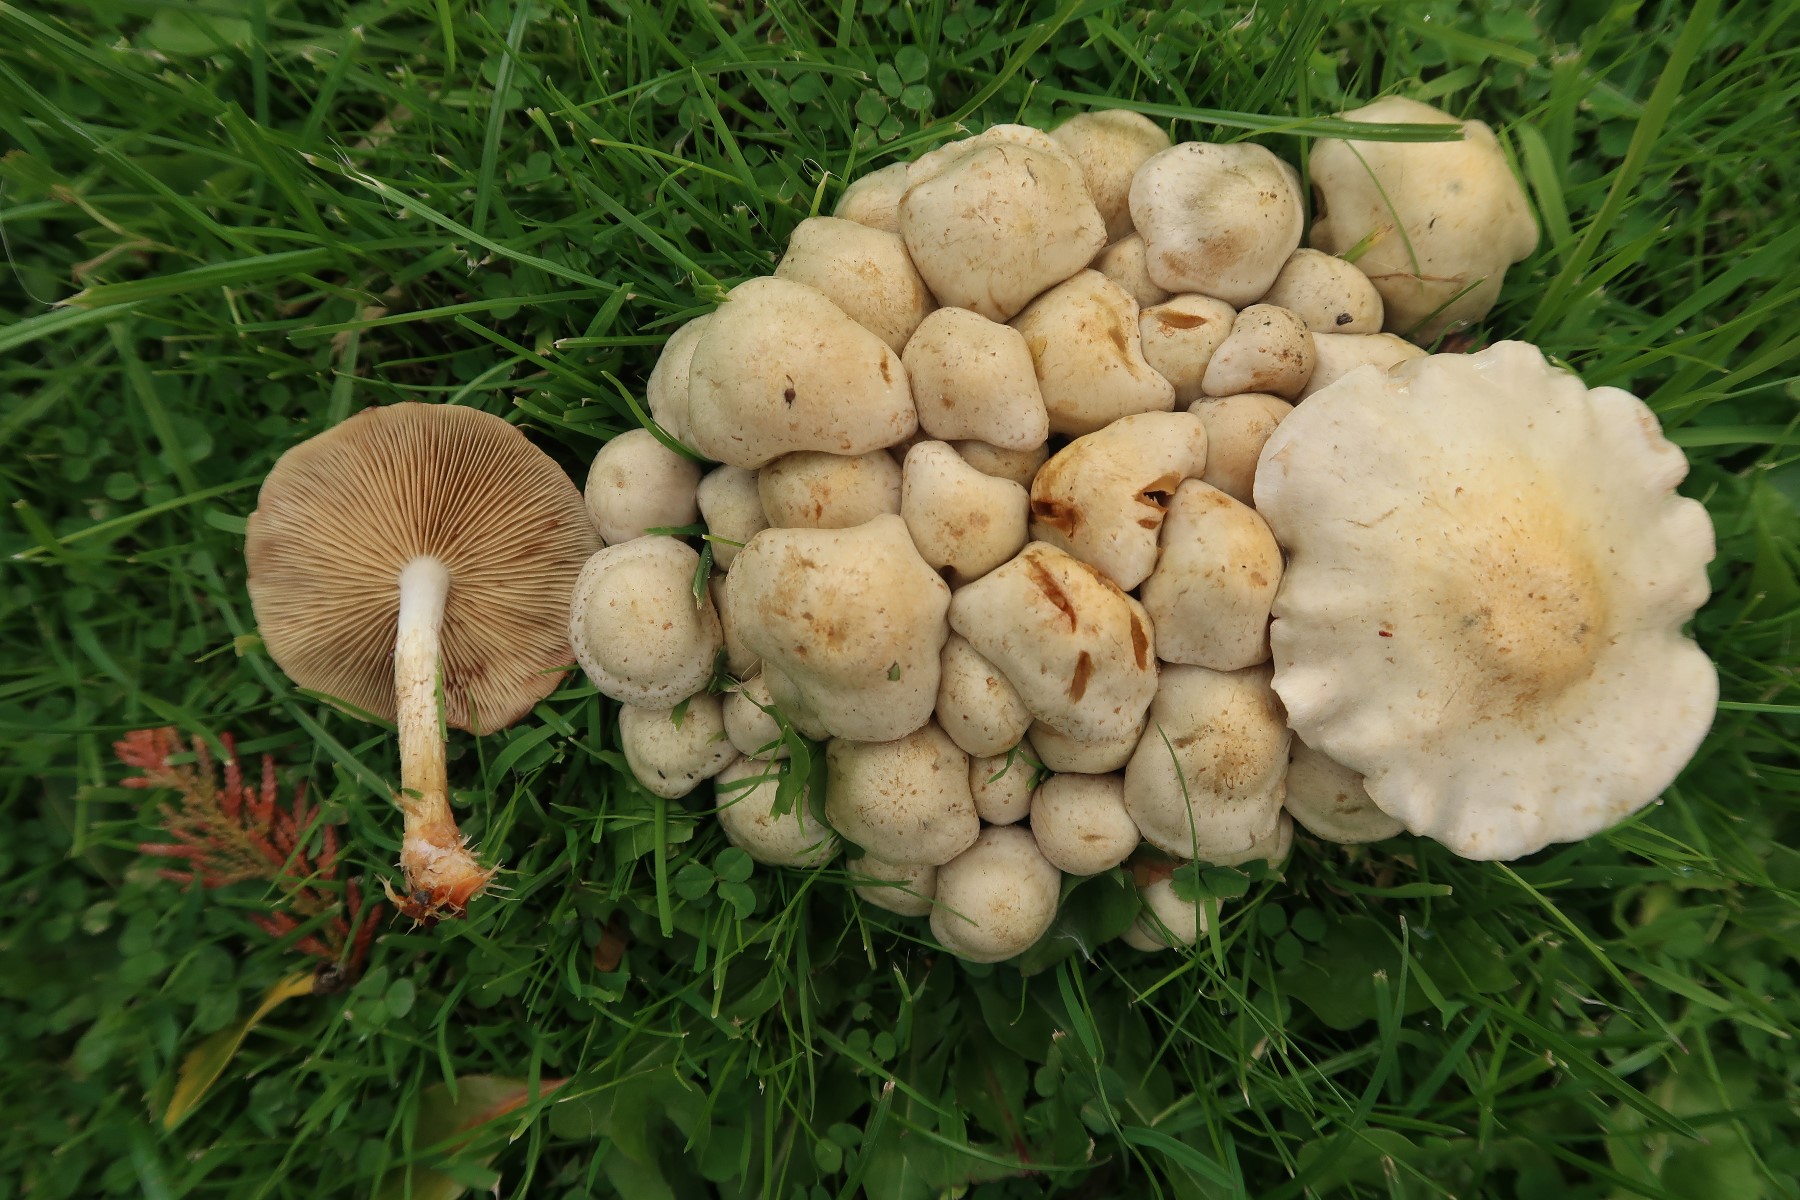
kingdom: Fungi
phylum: Basidiomycota
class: Agaricomycetes
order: Agaricales
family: Strophariaceae
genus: Pholiota
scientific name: Pholiota gummosa
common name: grøngul skælhat
